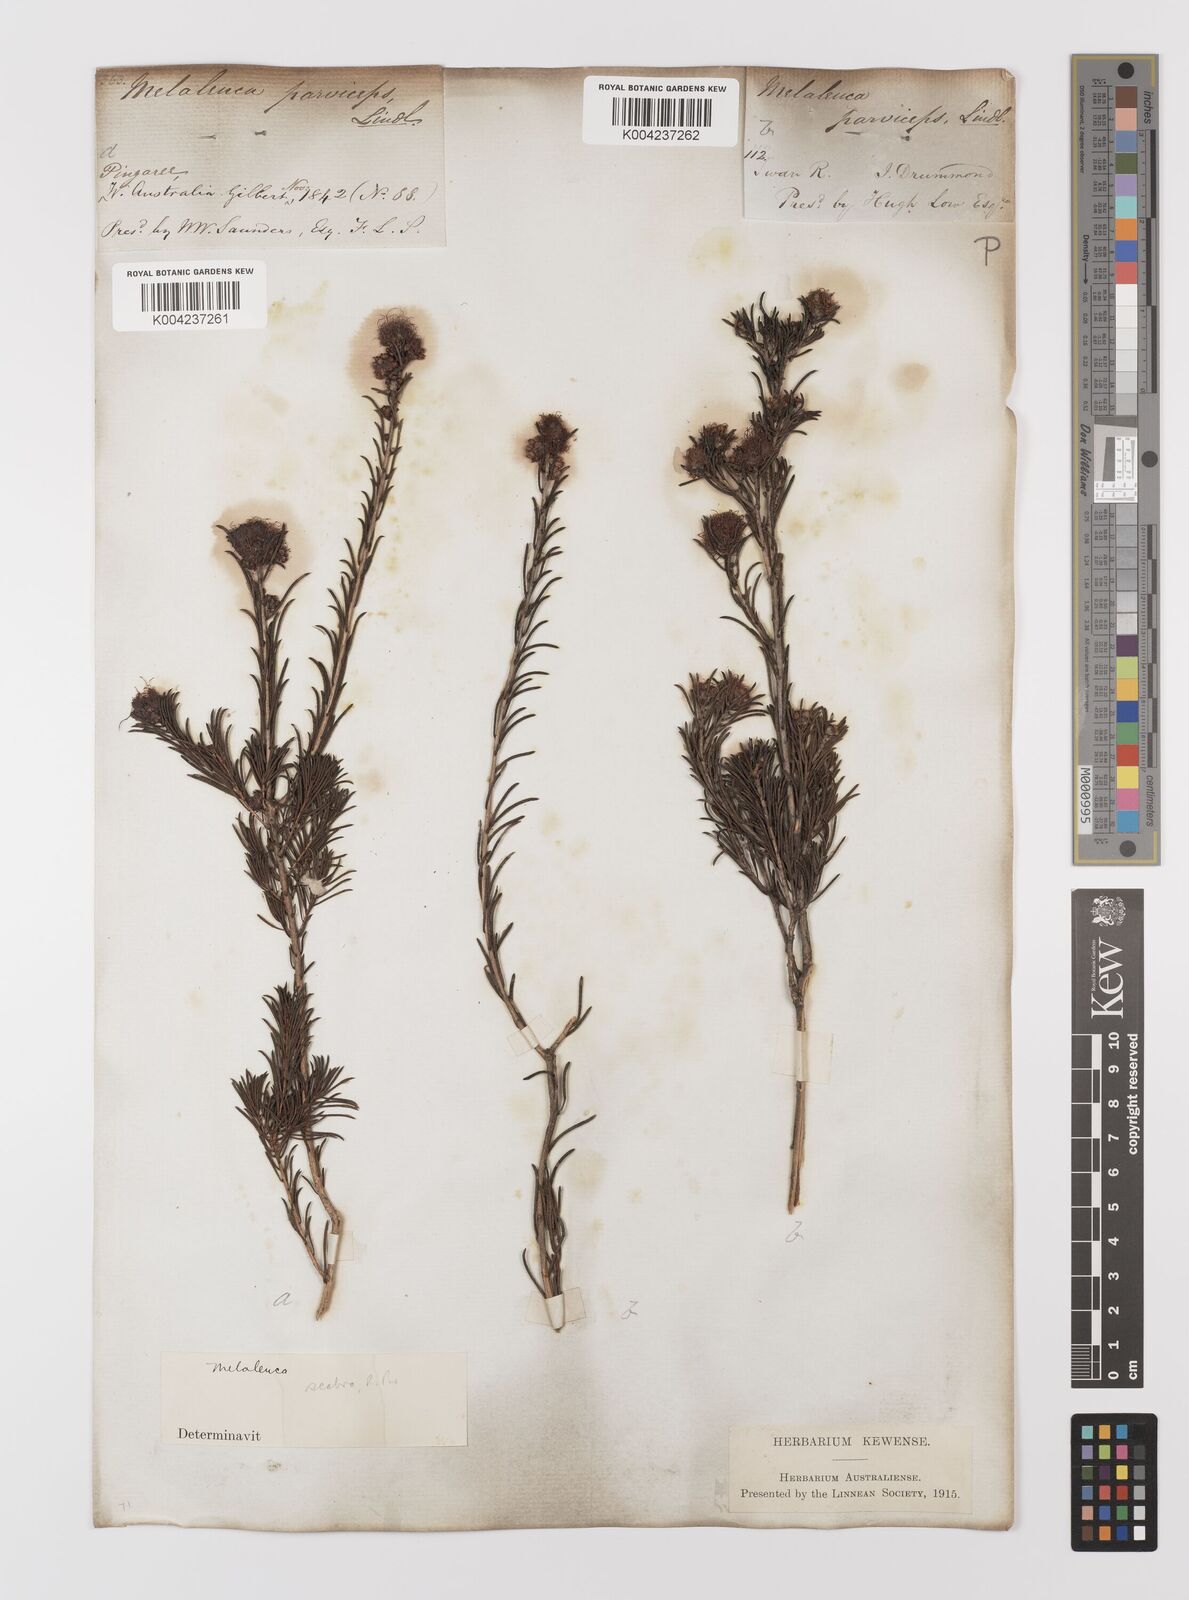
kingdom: Plantae
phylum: Tracheophyta
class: Magnoliopsida
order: Myrtales
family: Myrtaceae
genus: Melaleuca
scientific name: Melaleuca parviceps
